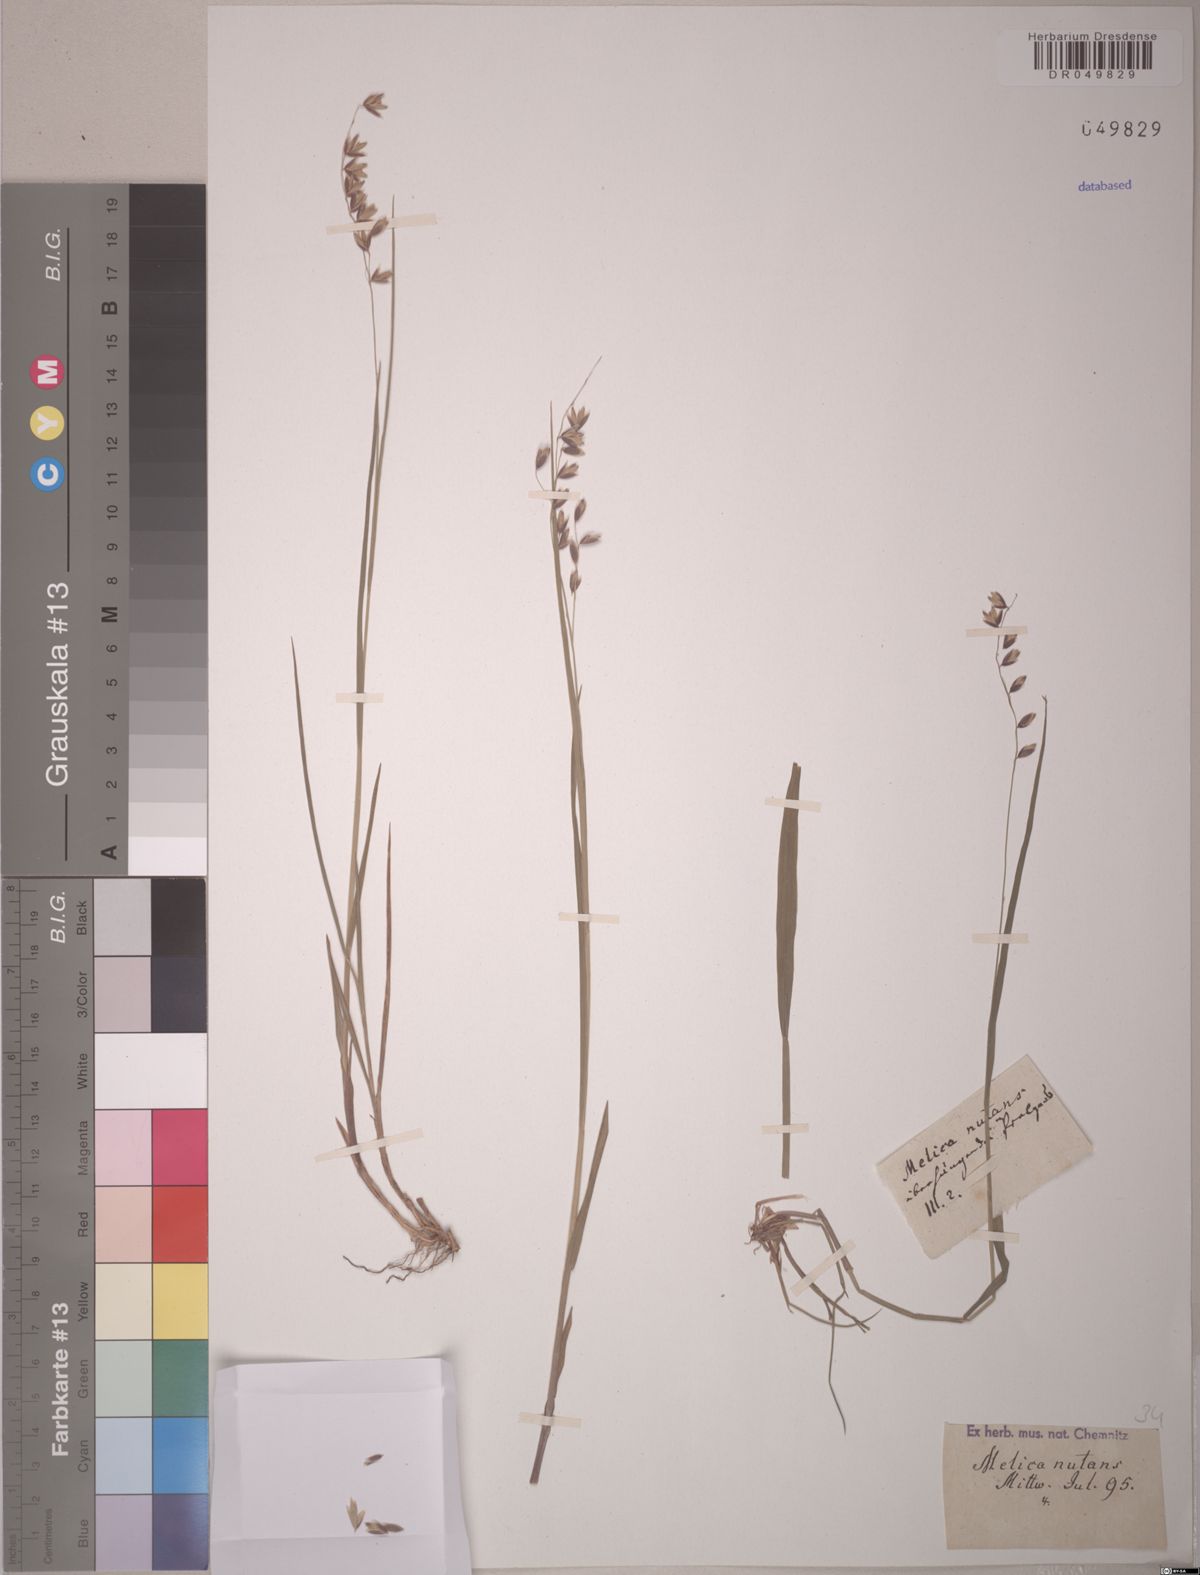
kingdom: Plantae
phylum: Tracheophyta
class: Liliopsida
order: Poales
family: Poaceae
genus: Melica
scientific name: Melica nutans
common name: Mountain melick
